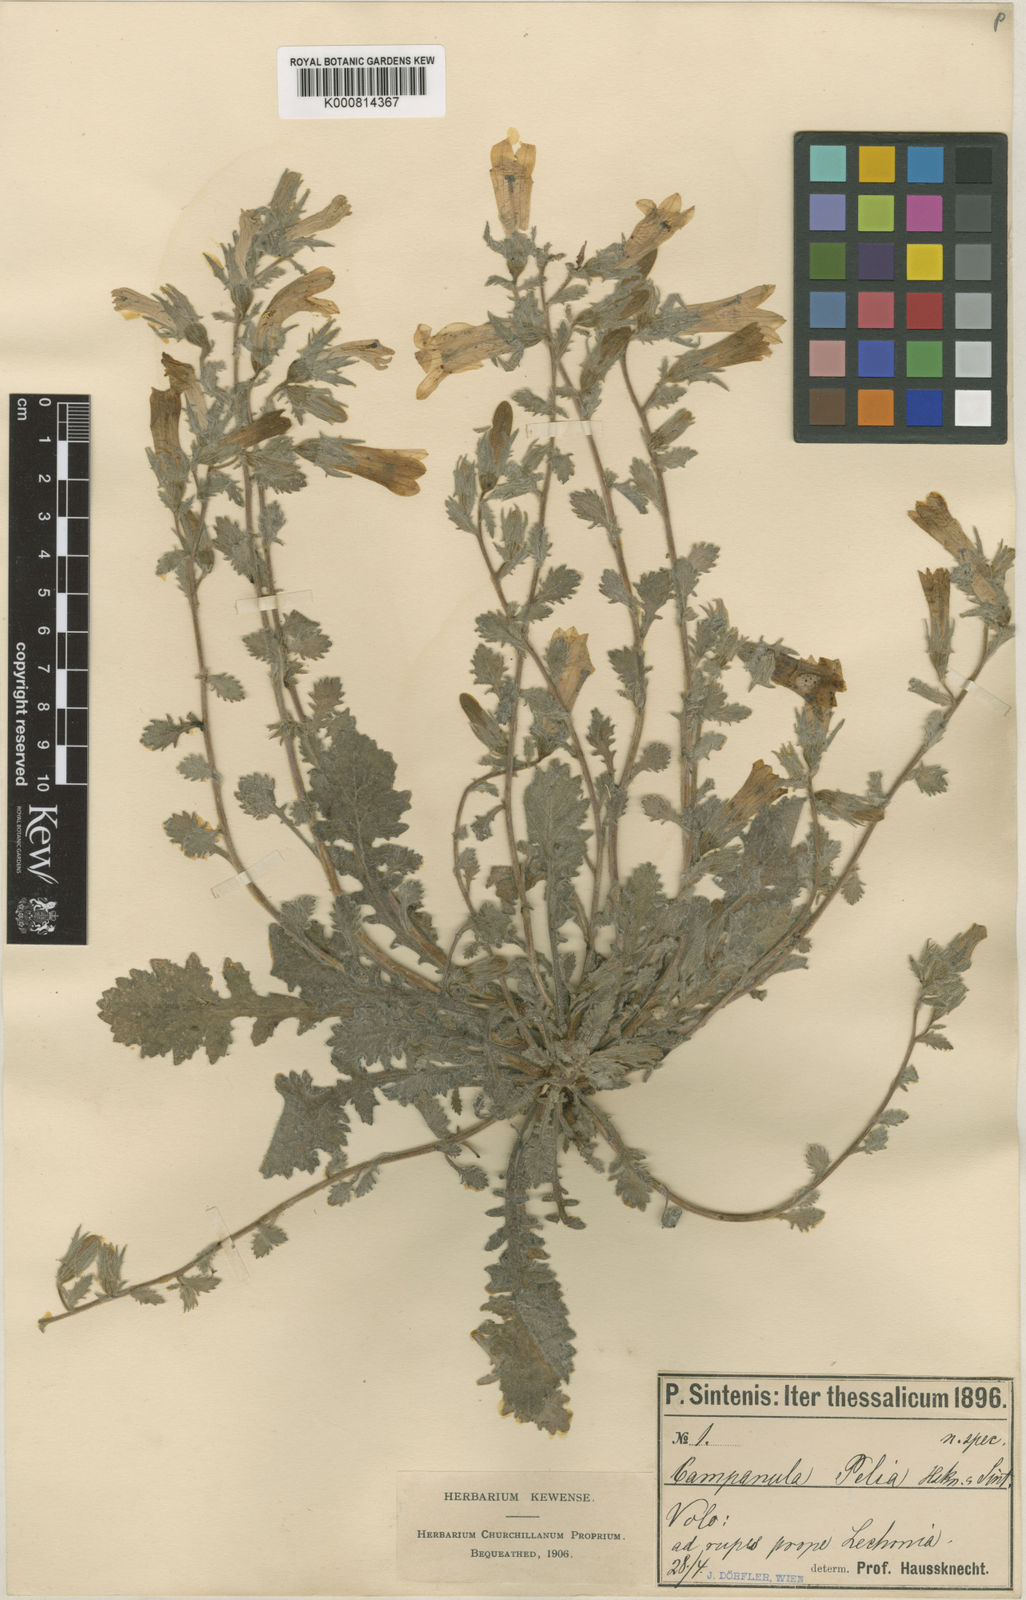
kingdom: Plantae
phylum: Tracheophyta
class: Magnoliopsida
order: Asterales
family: Campanulaceae
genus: Campanula
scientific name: Campanula andrewsii
